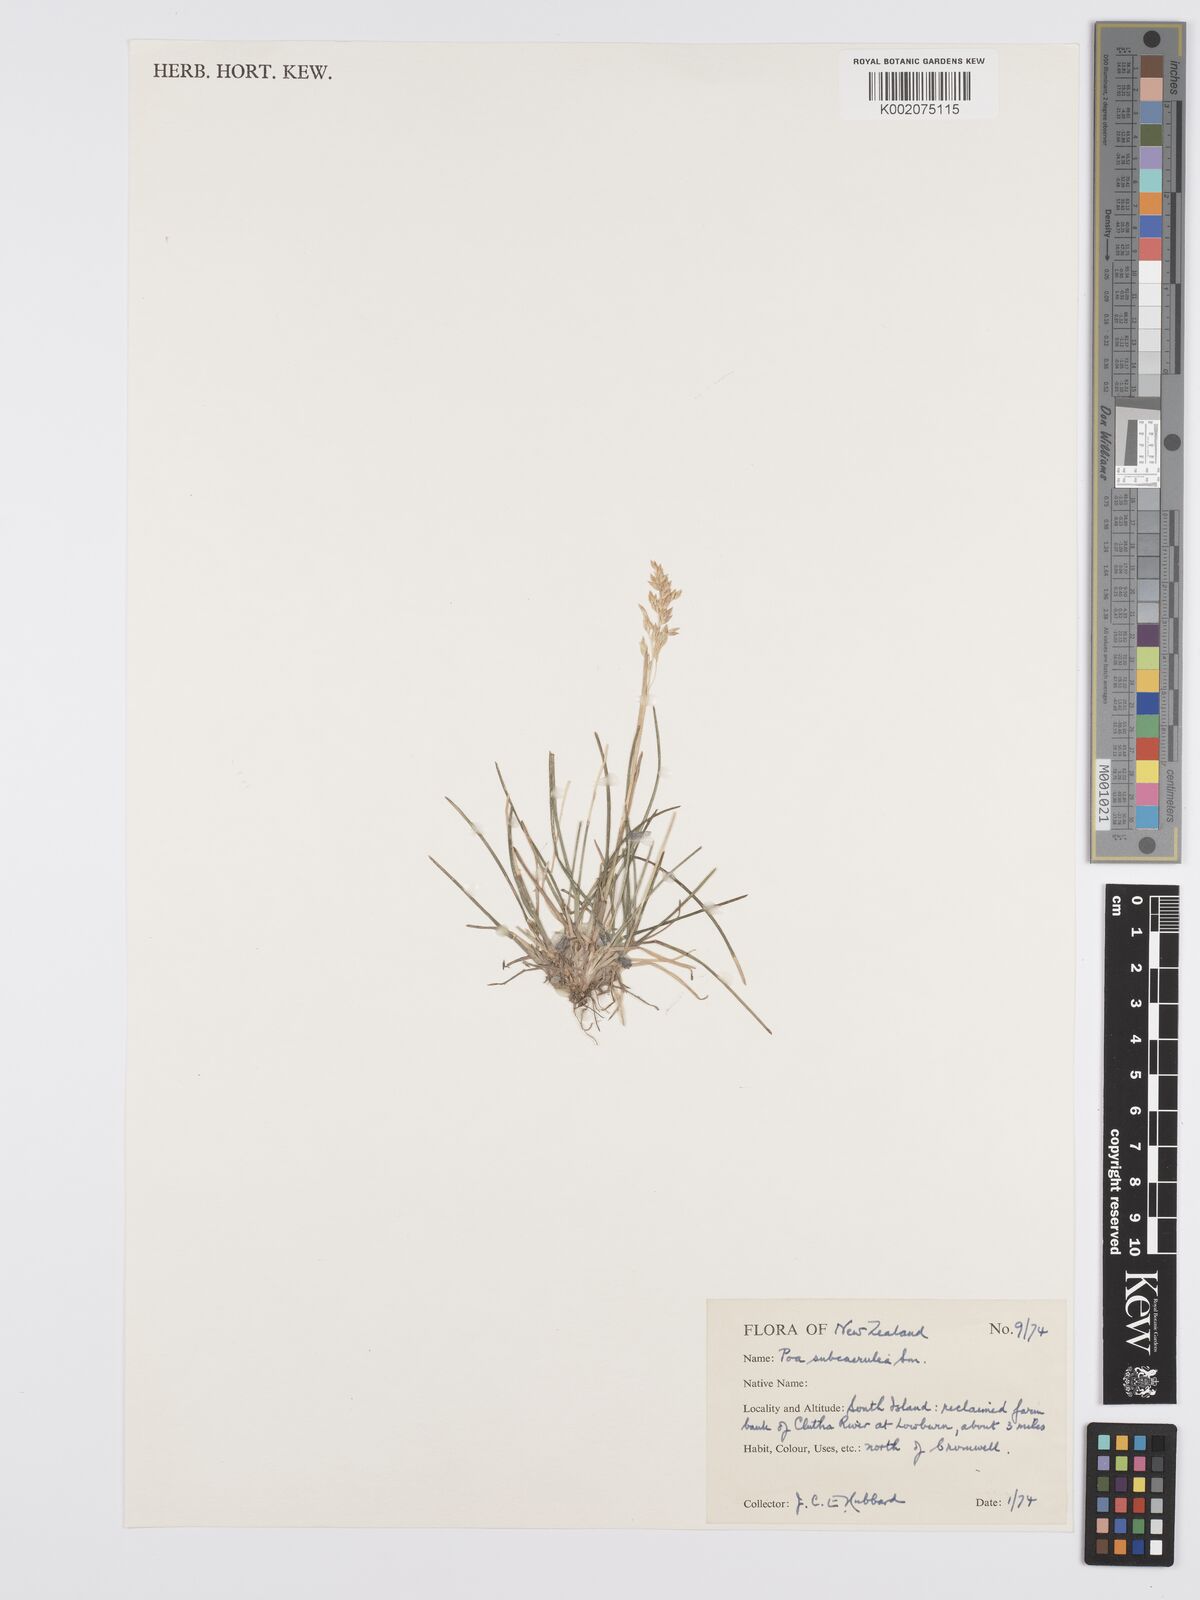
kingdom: Plantae
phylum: Tracheophyta
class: Liliopsida
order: Poales
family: Poaceae
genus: Poa
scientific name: Poa pratensis
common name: Kentucky bluegrass
